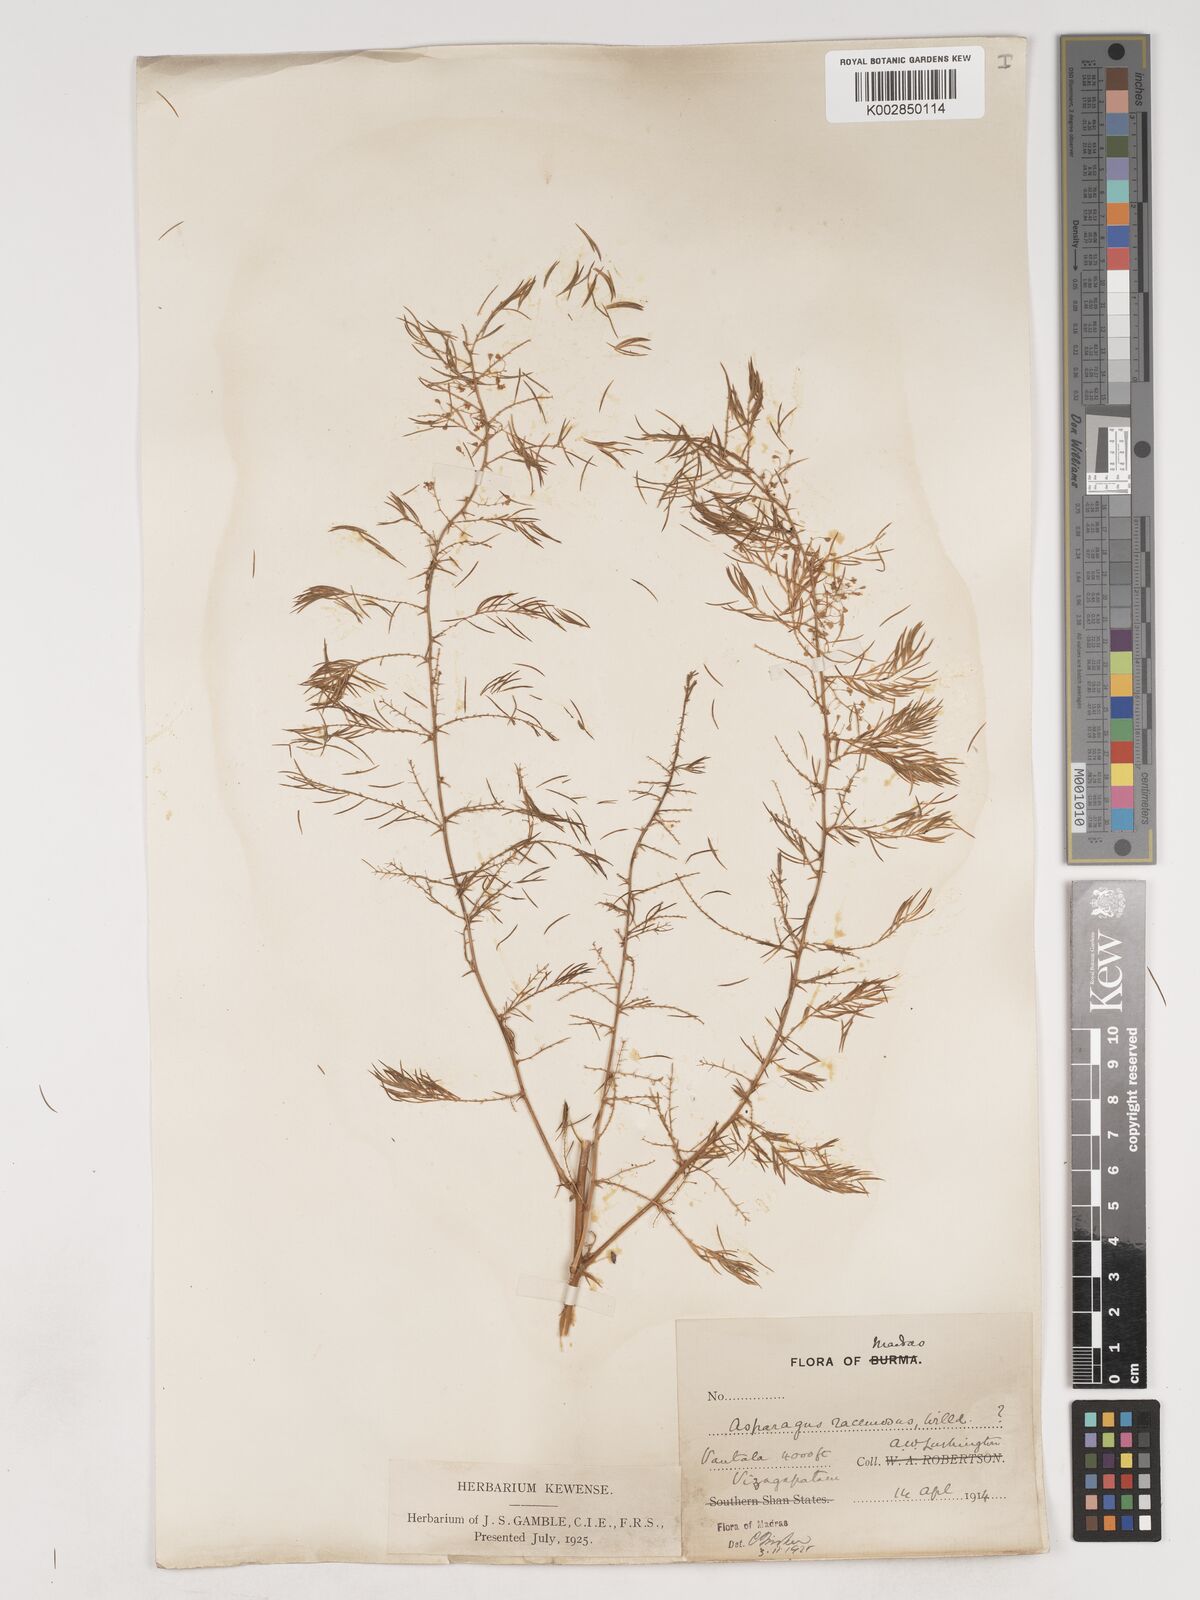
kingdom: Plantae
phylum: Tracheophyta
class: Liliopsida
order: Asparagales
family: Asparagaceae
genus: Asparagus
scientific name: Asparagus racemosus
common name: Asparagus-fern
